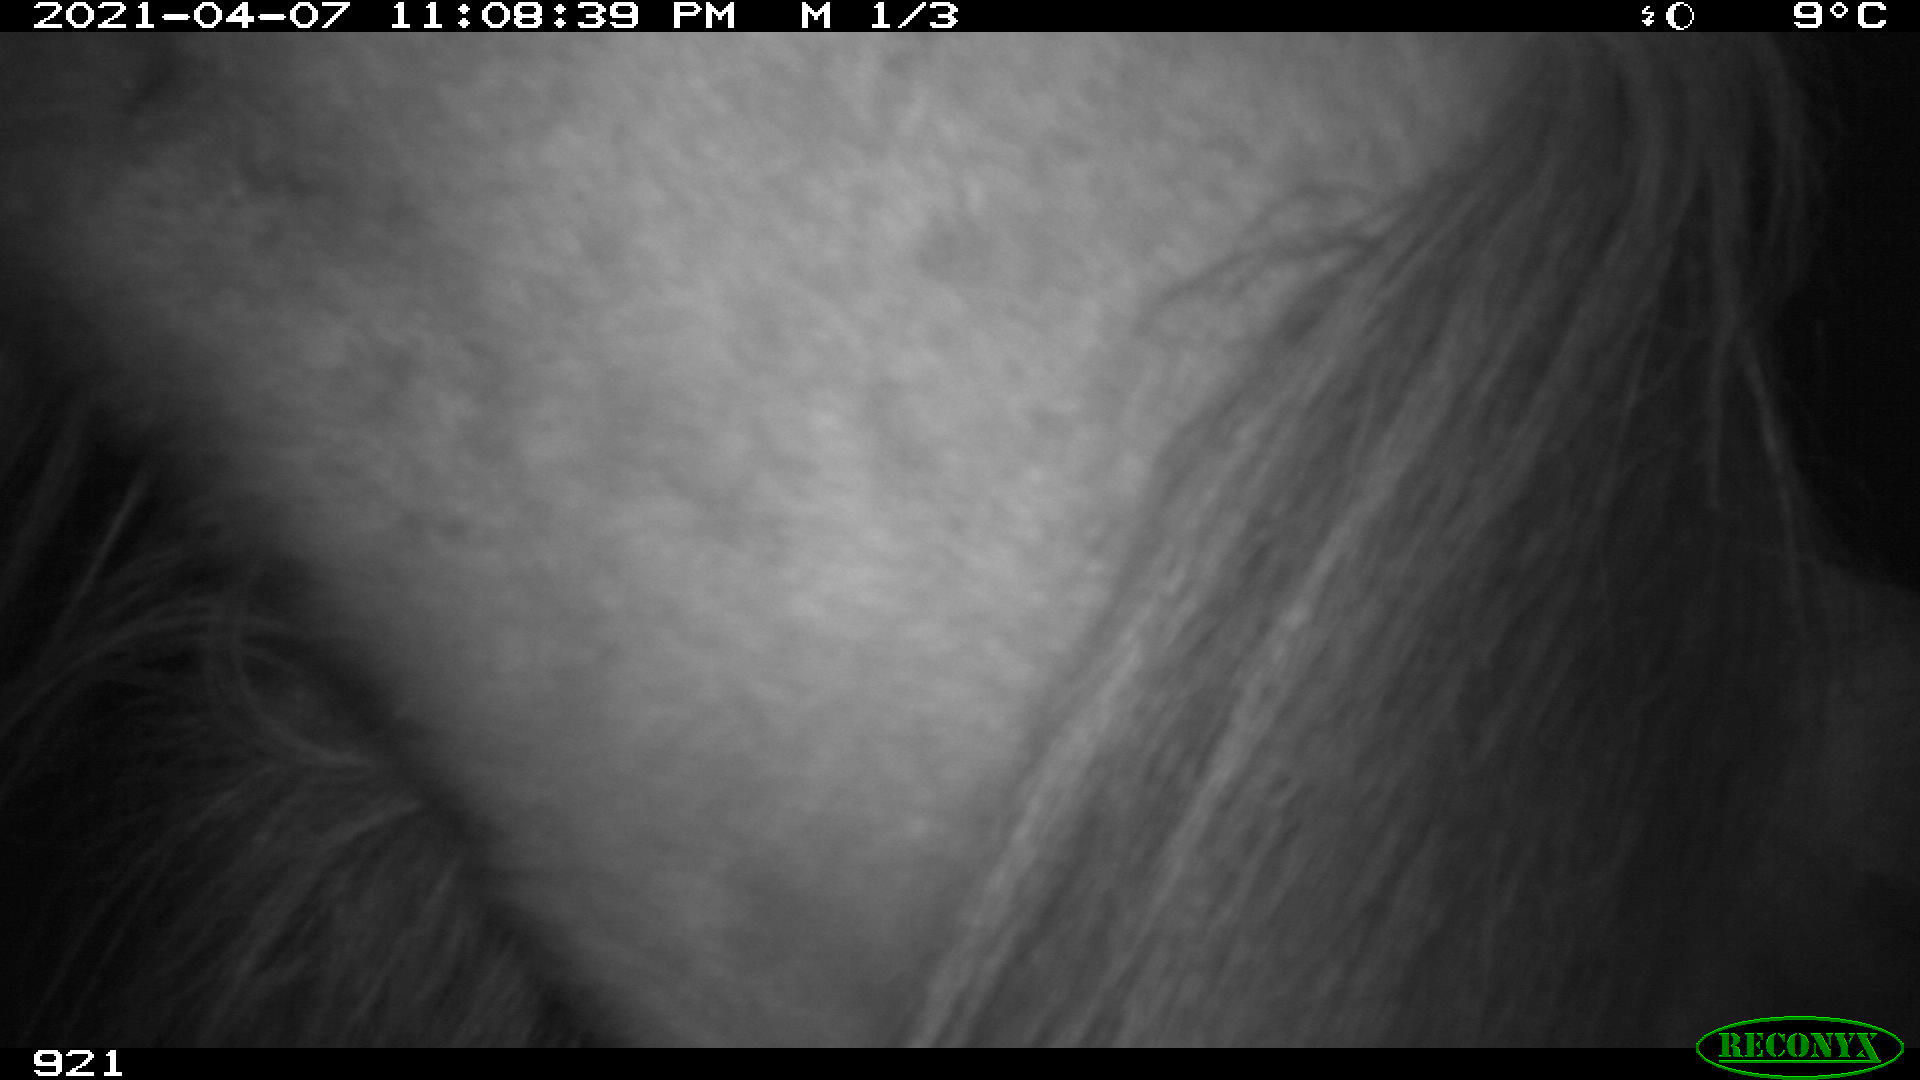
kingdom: Animalia
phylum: Chordata
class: Mammalia
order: Perissodactyla
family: Equidae
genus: Equus
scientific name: Equus caballus
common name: Horse
